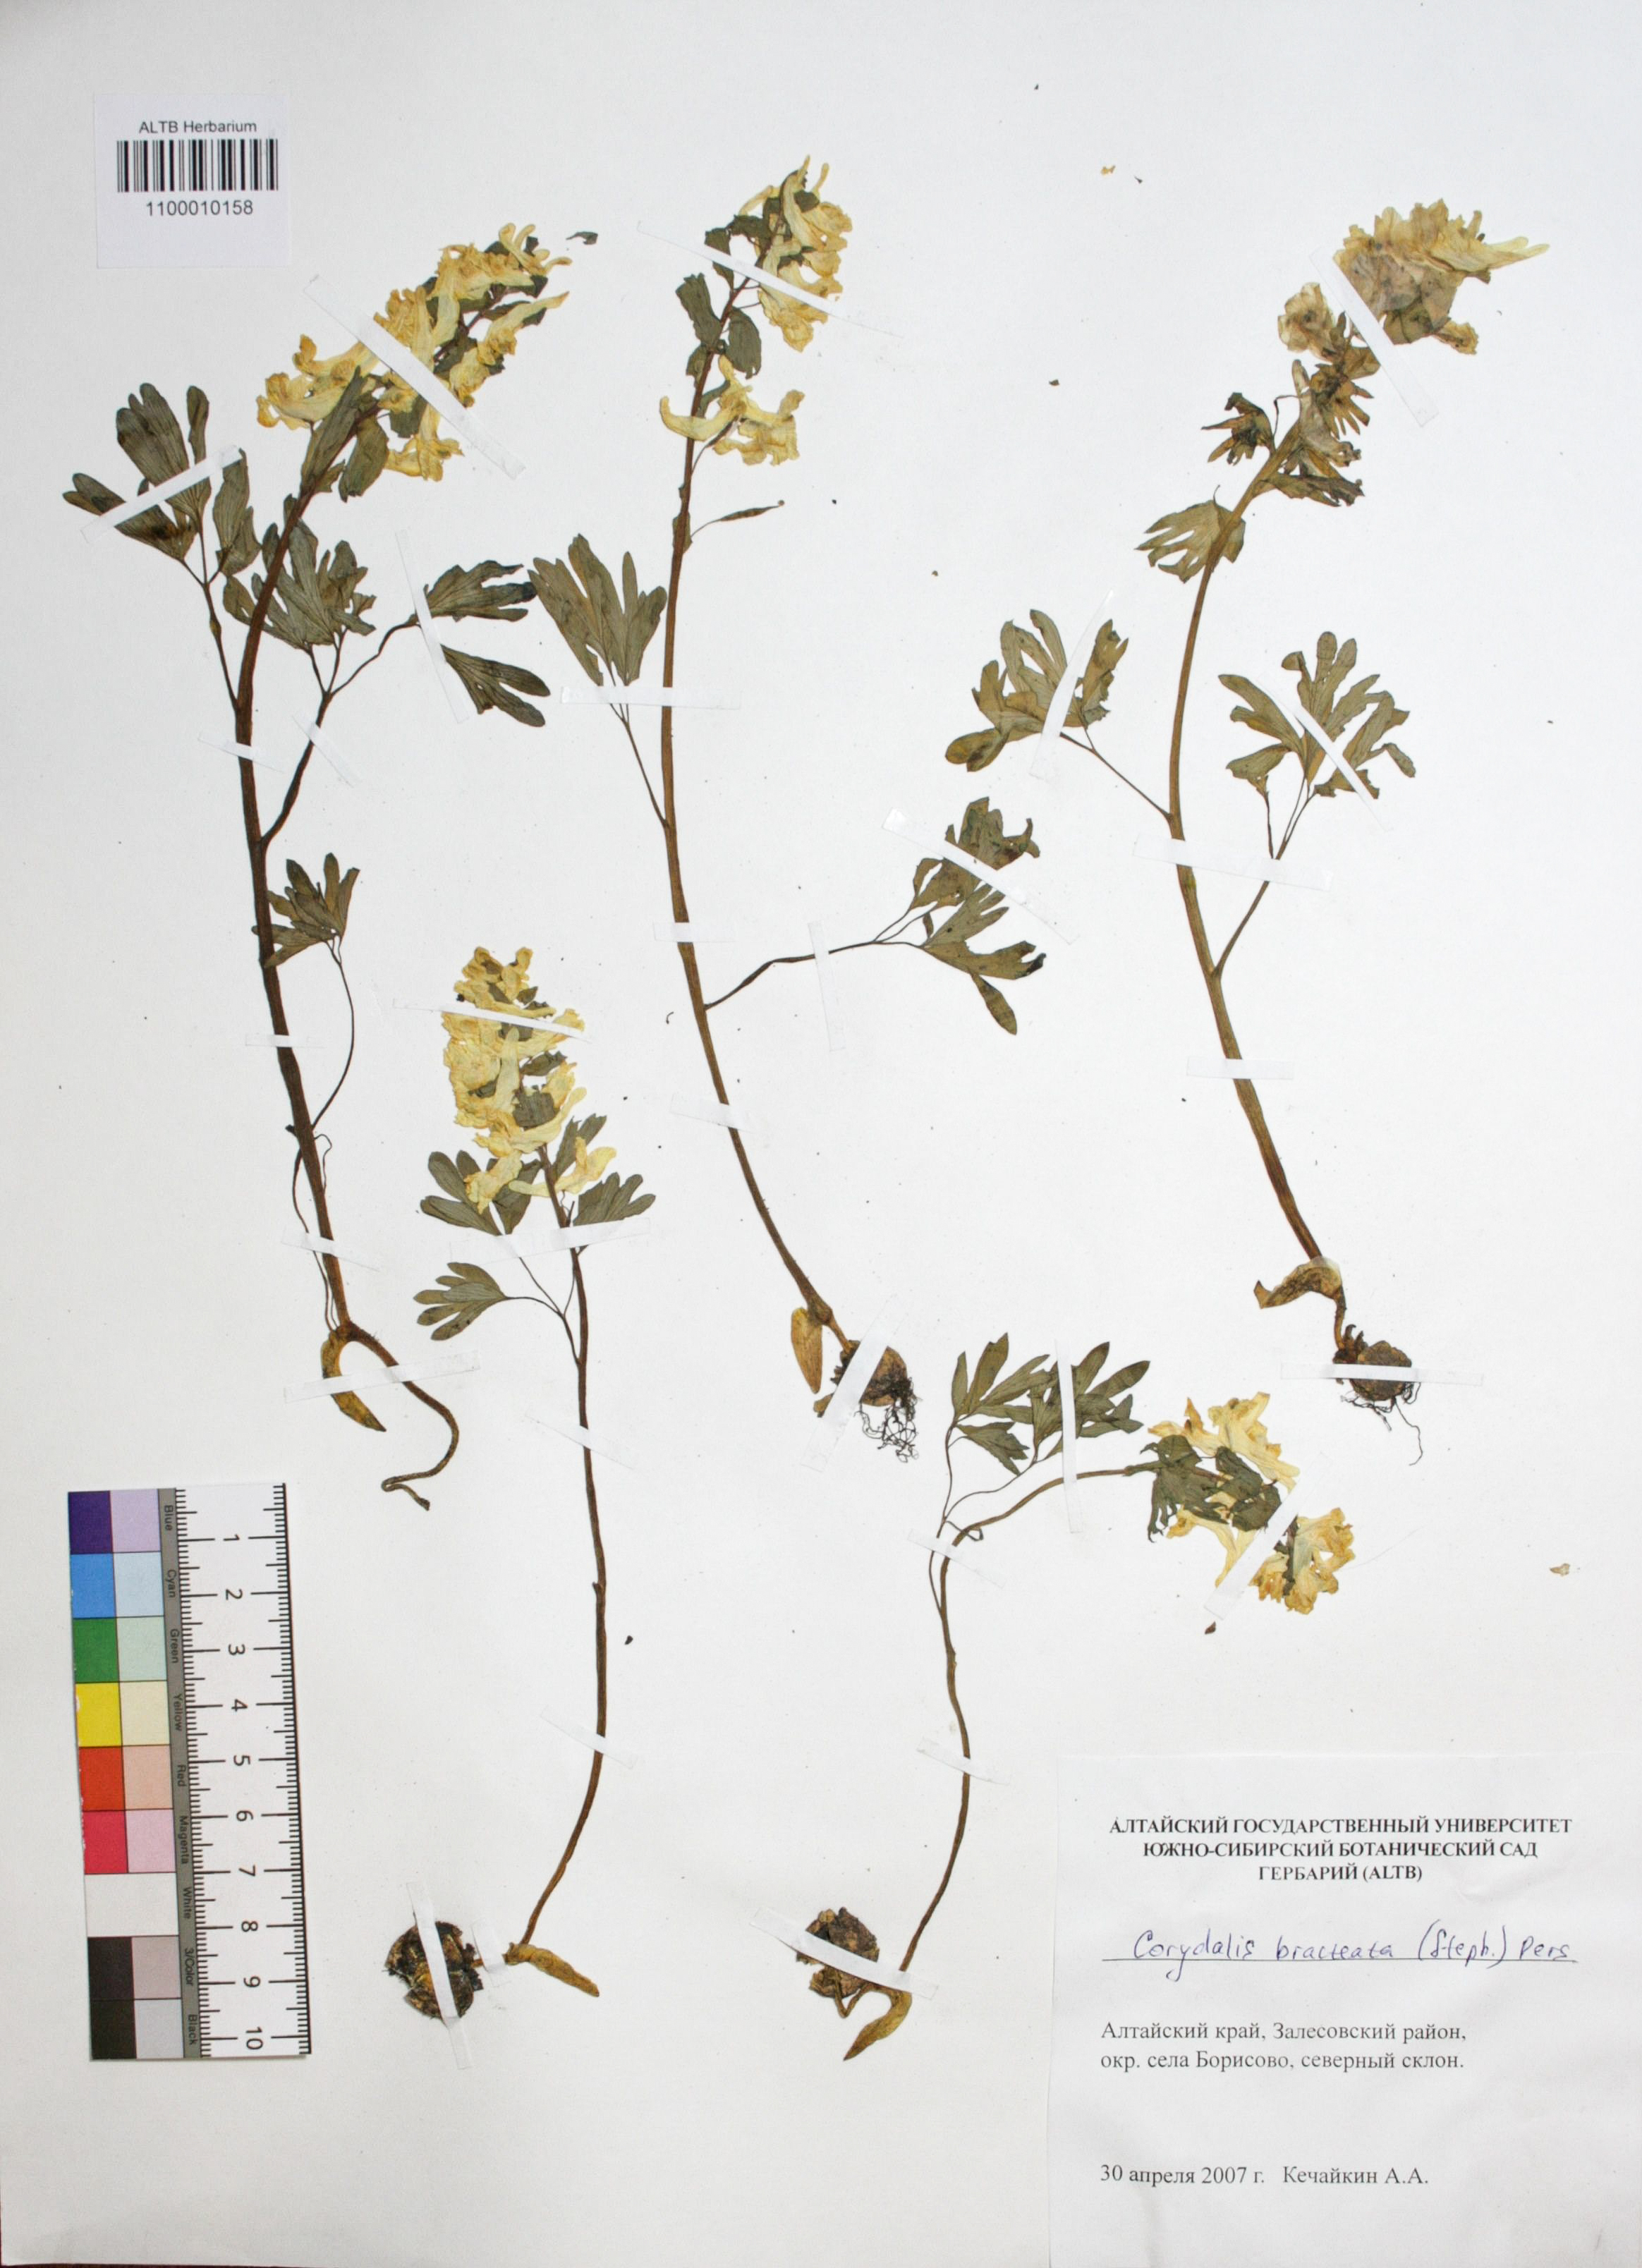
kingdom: Plantae
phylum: Tracheophyta
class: Magnoliopsida
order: Ranunculales
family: Papaveraceae
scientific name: Papaveraceae
